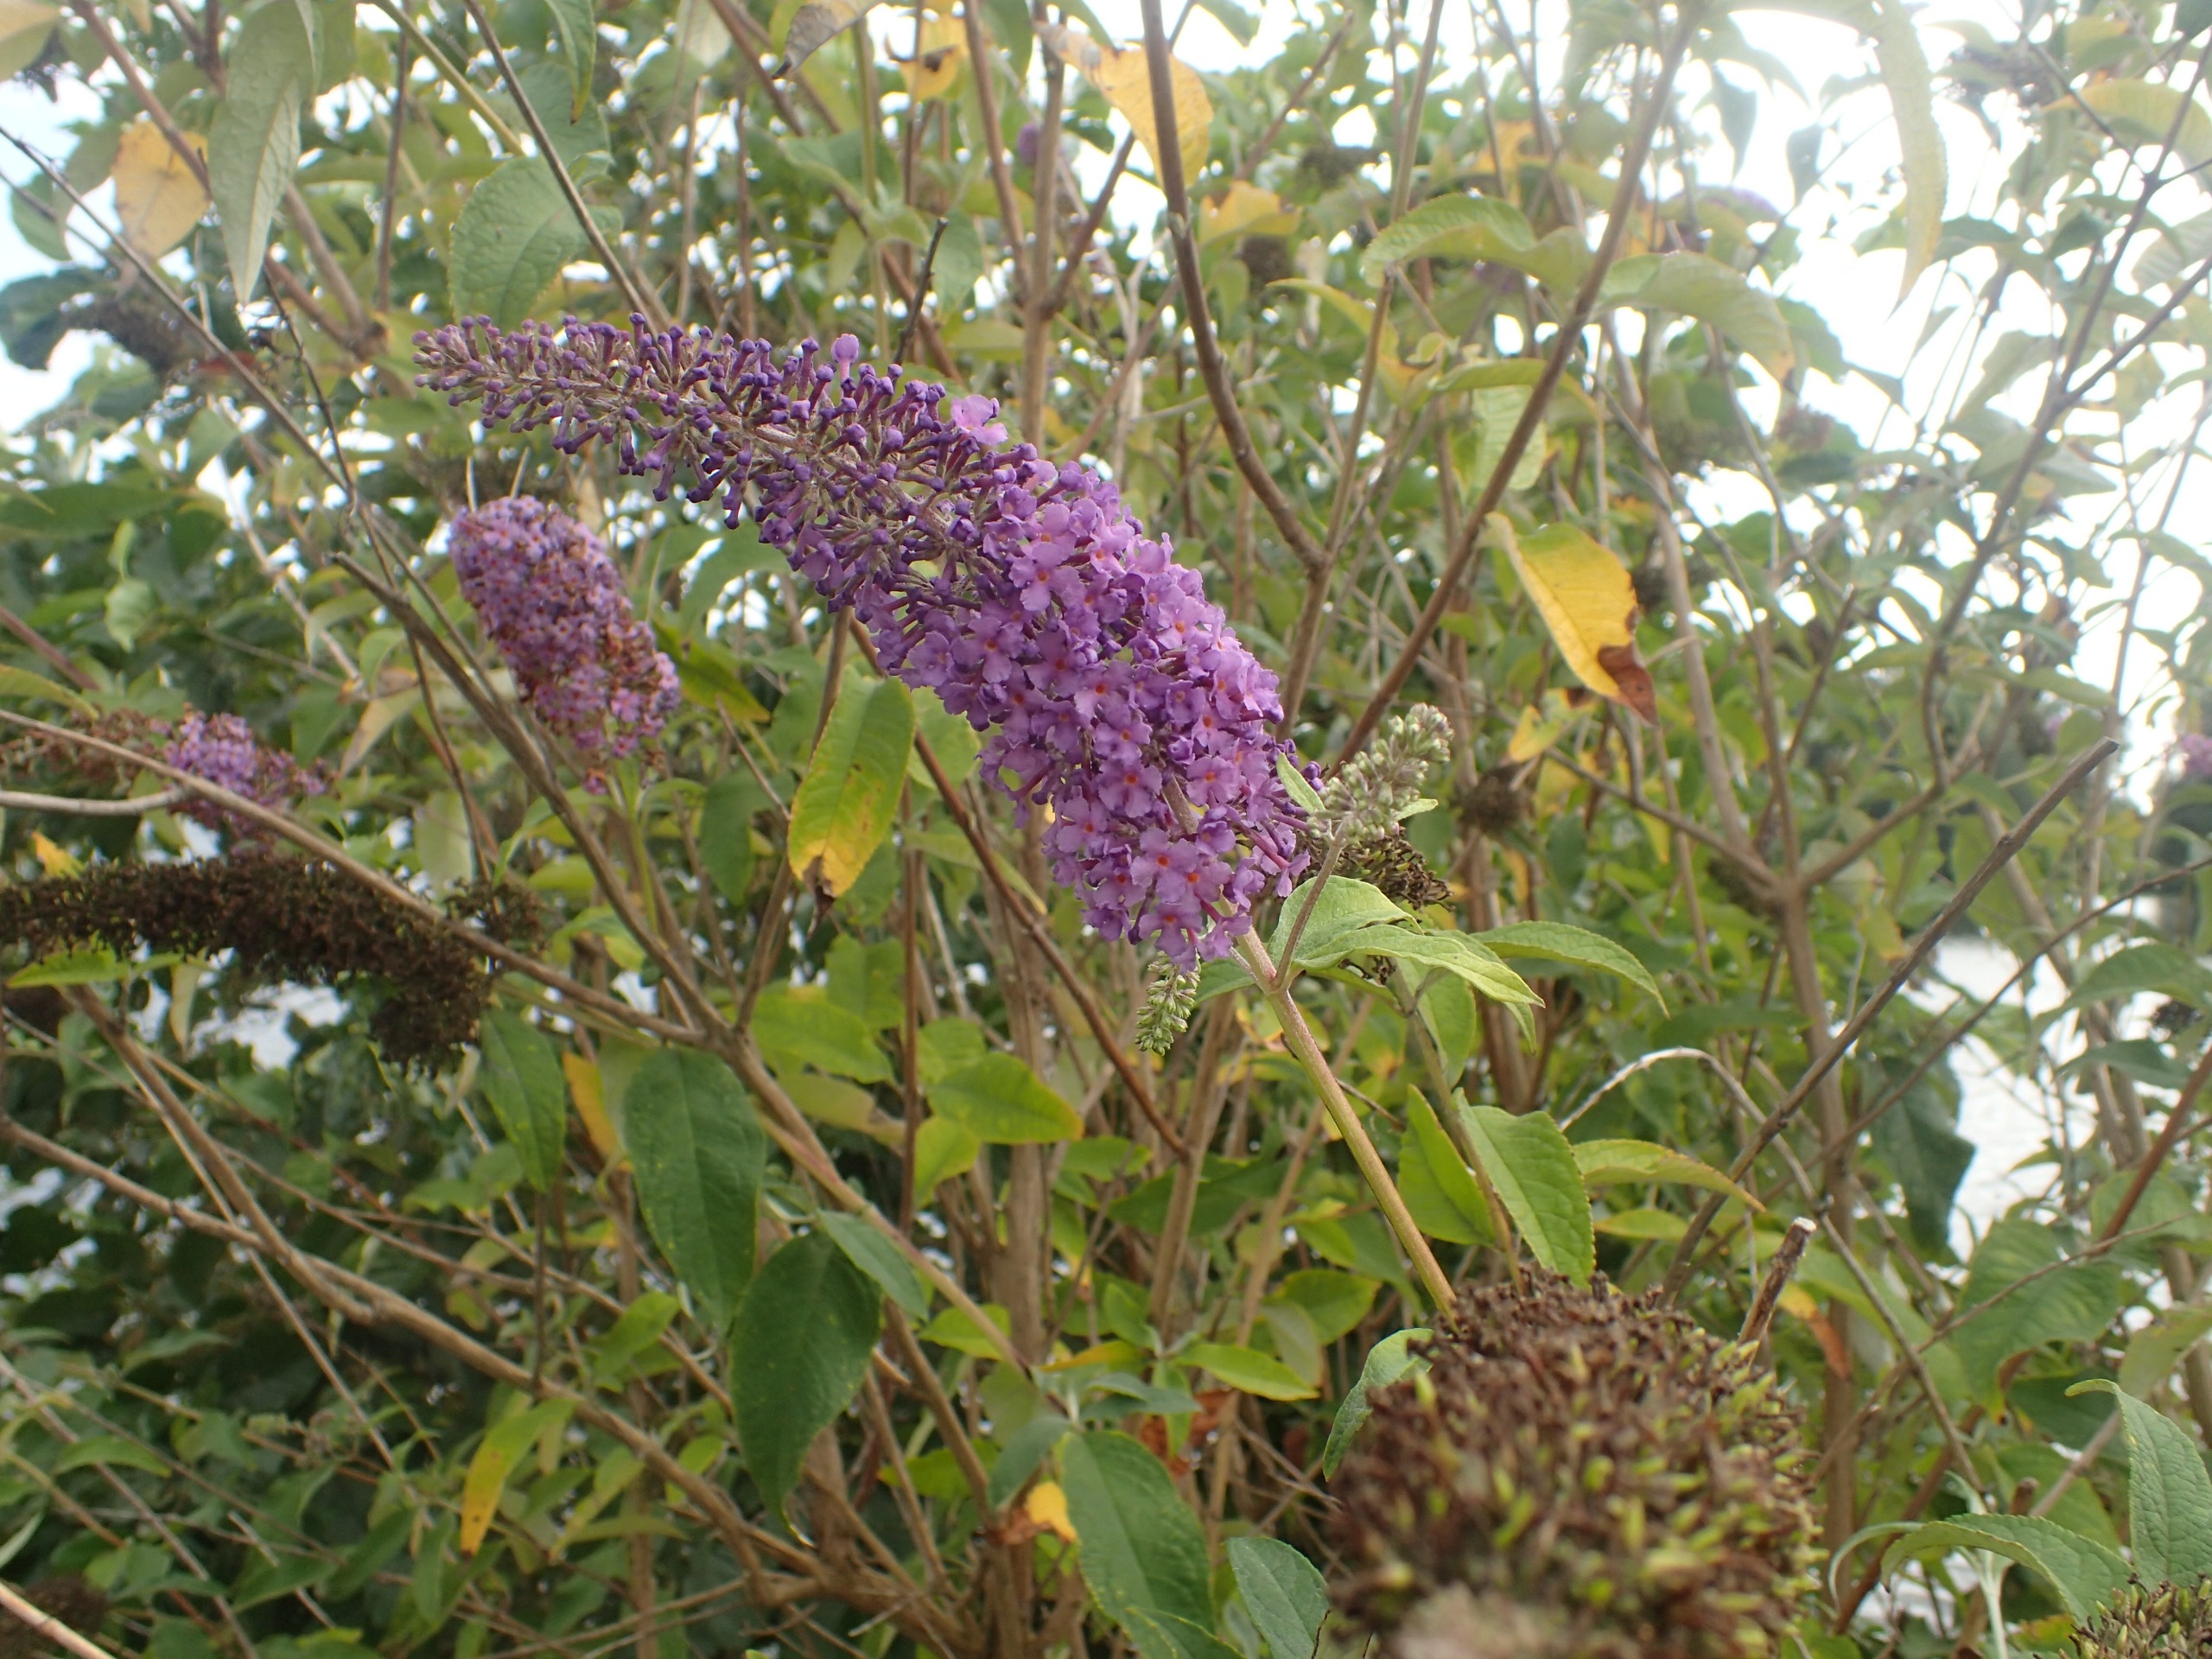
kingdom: Plantae
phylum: Tracheophyta
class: Magnoliopsida
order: Lamiales
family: Scrophulariaceae
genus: Buddleja
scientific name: Buddleja davidii
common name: Sommerfuglebusk
